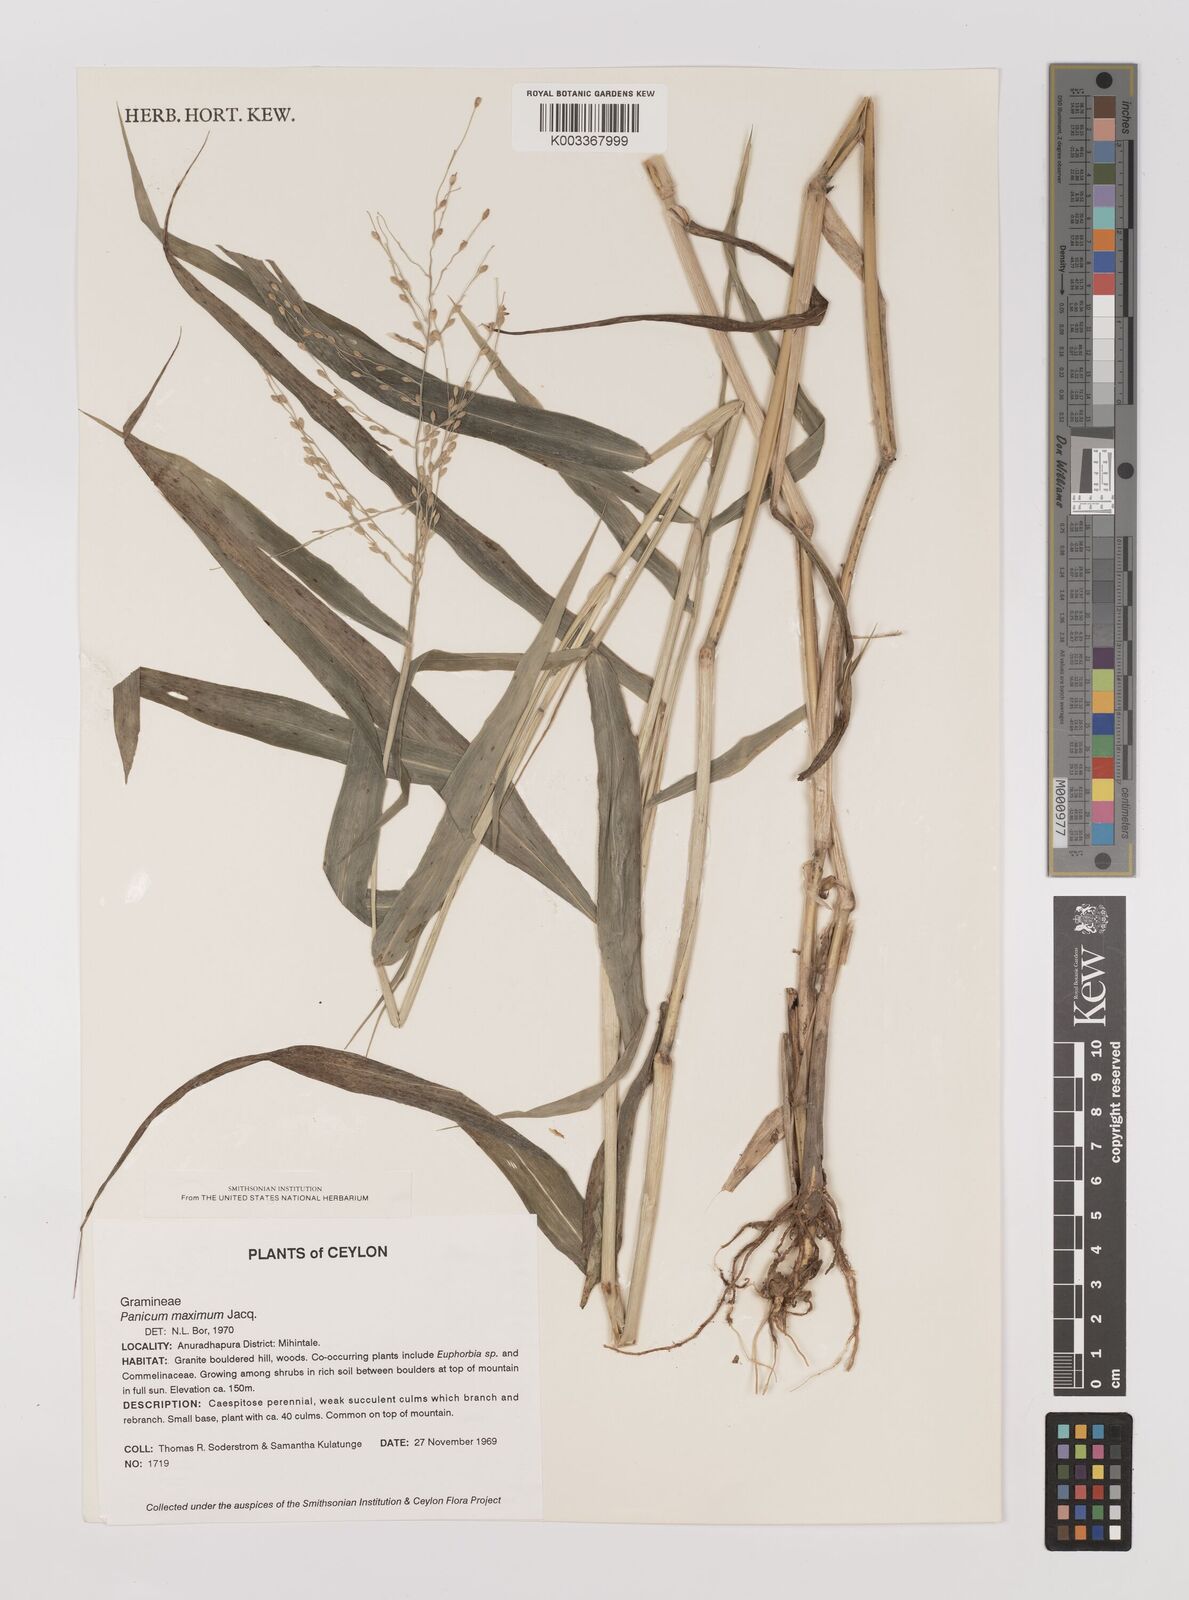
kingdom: Plantae
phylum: Tracheophyta
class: Liliopsida
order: Poales
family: Poaceae
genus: Megathyrsus
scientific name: Megathyrsus maximus
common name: Guineagrass
